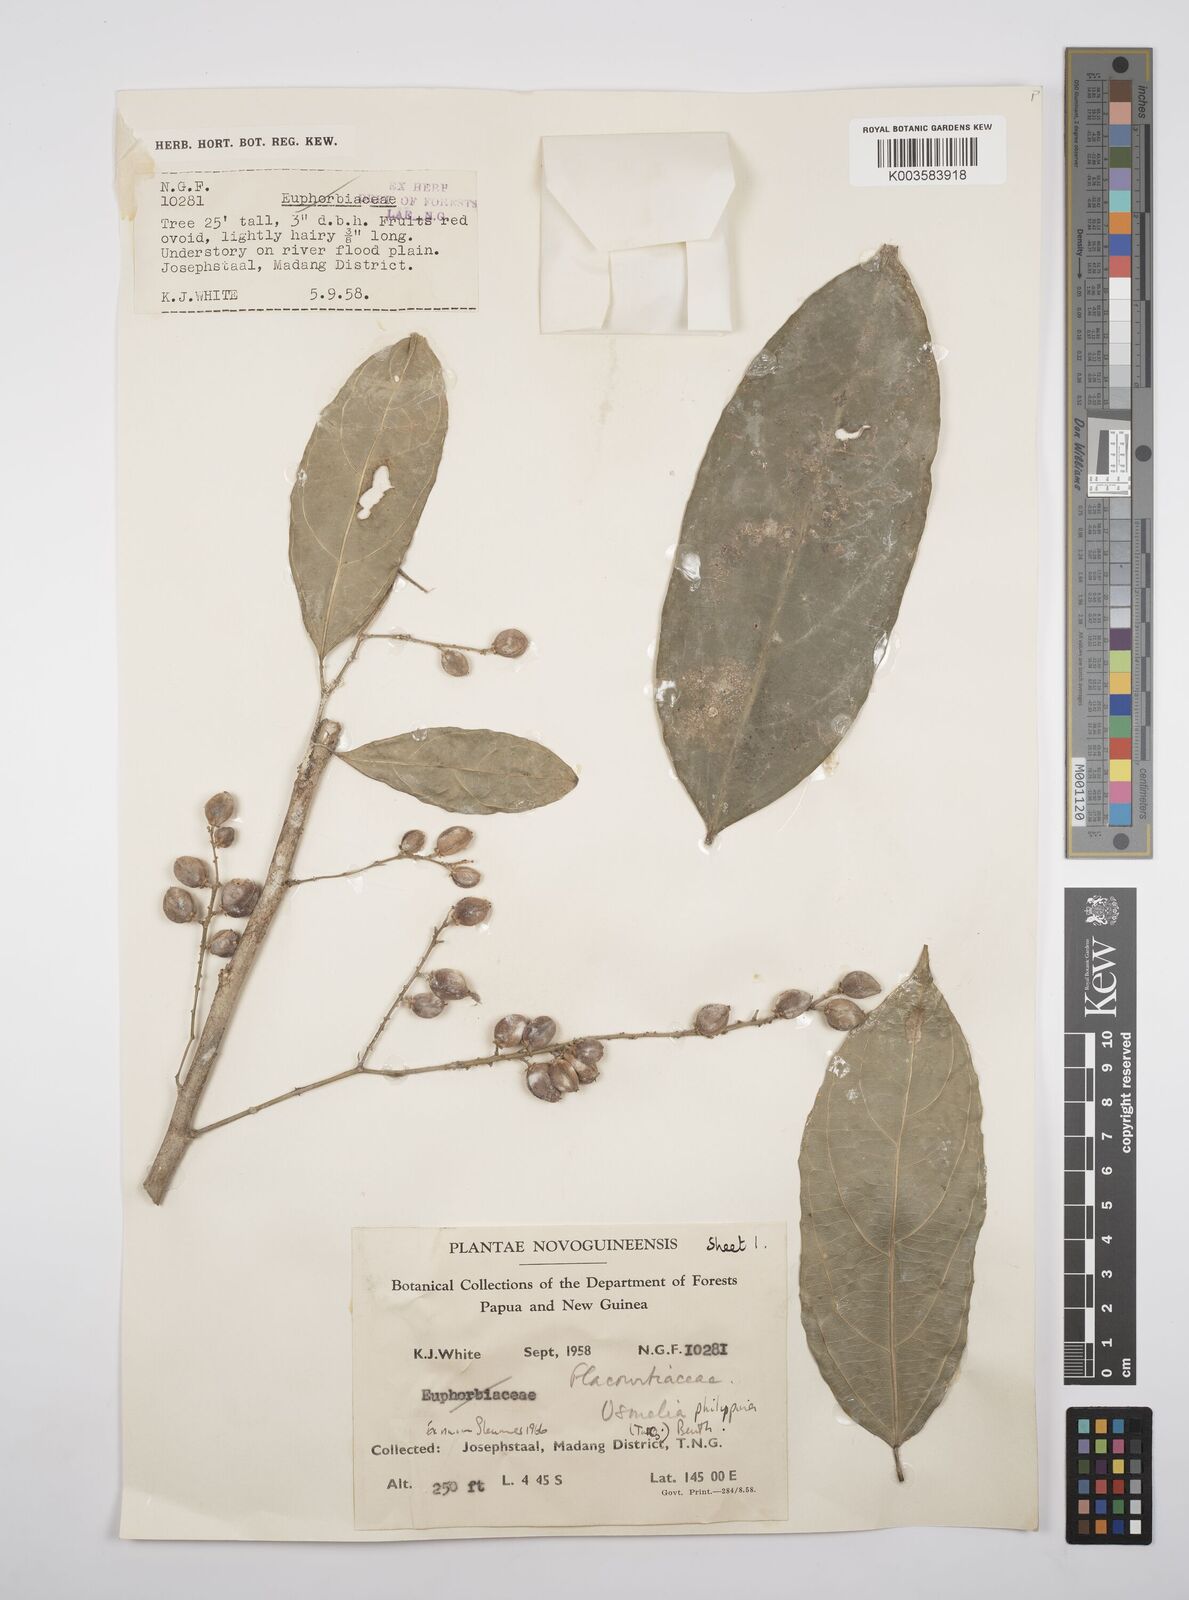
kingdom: Plantae
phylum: Tracheophyta
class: Magnoliopsida
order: Malpighiales
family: Salicaceae
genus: Osmelia
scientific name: Osmelia philippina
